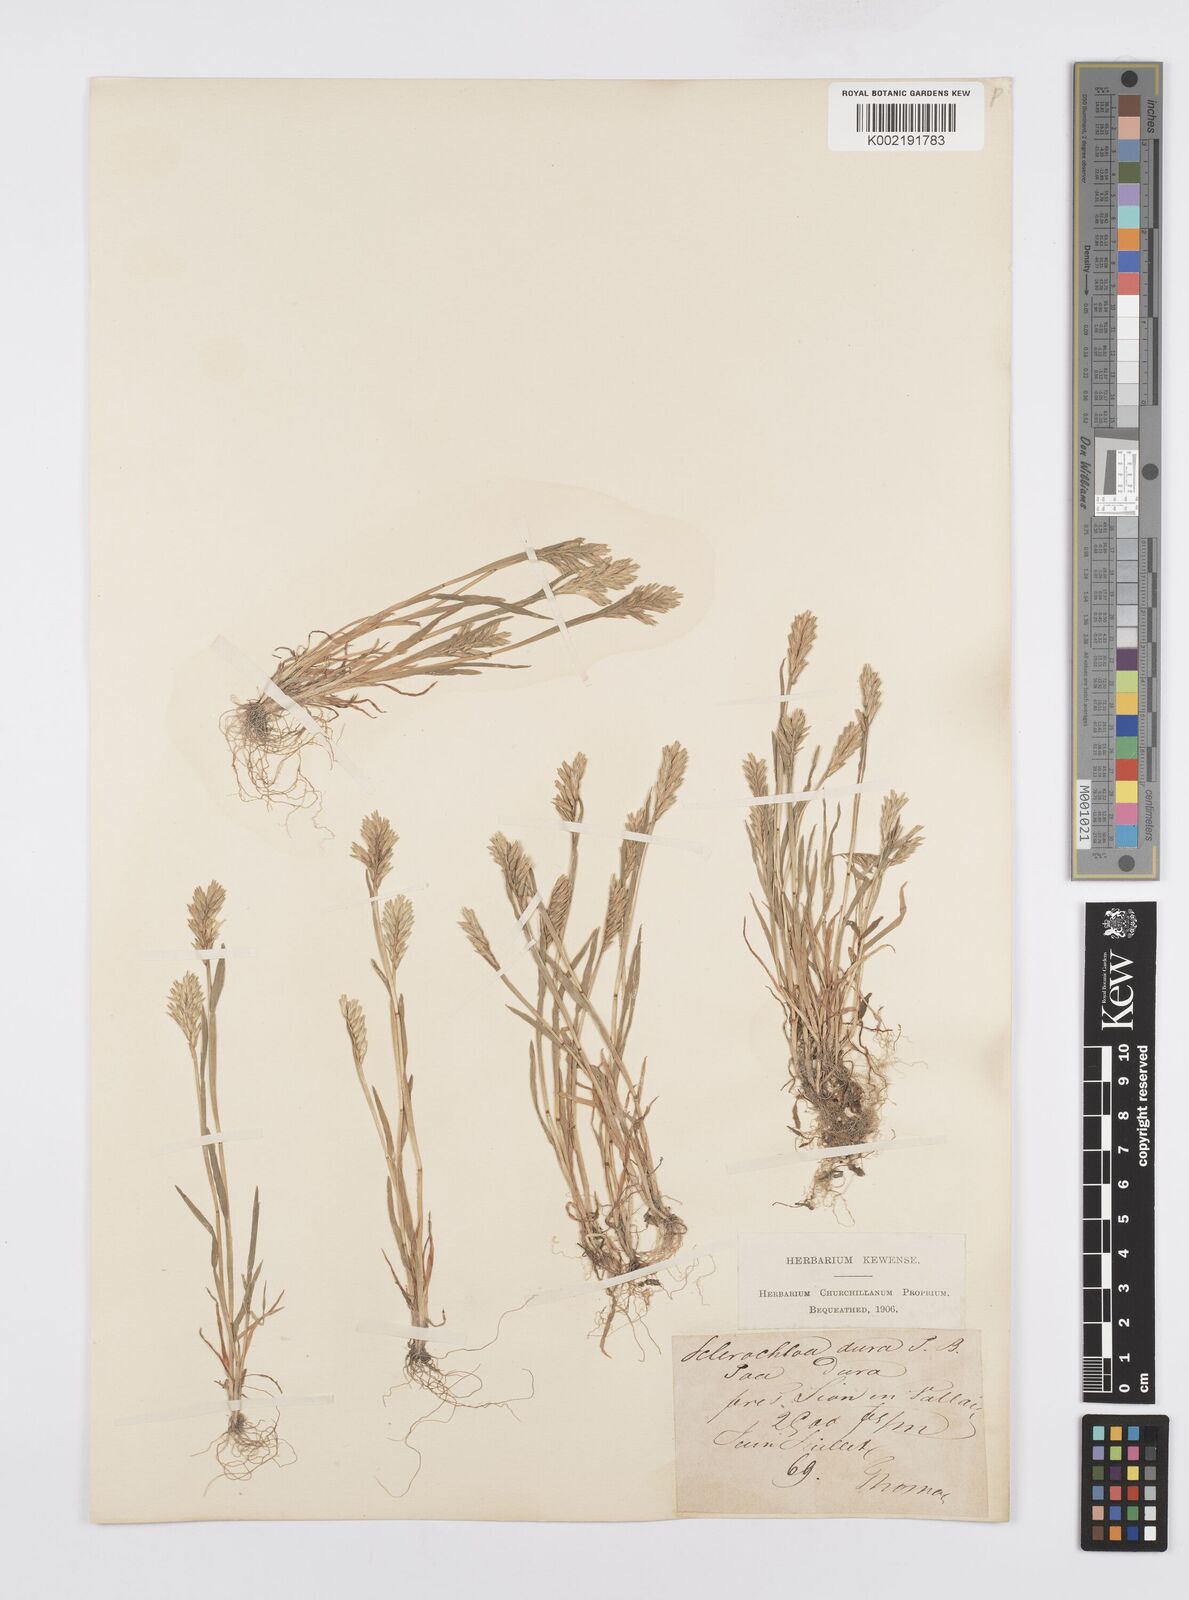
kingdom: Plantae
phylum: Tracheophyta
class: Liliopsida
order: Poales
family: Poaceae
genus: Sclerochloa
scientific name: Sclerochloa dura
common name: Common hardgrass
